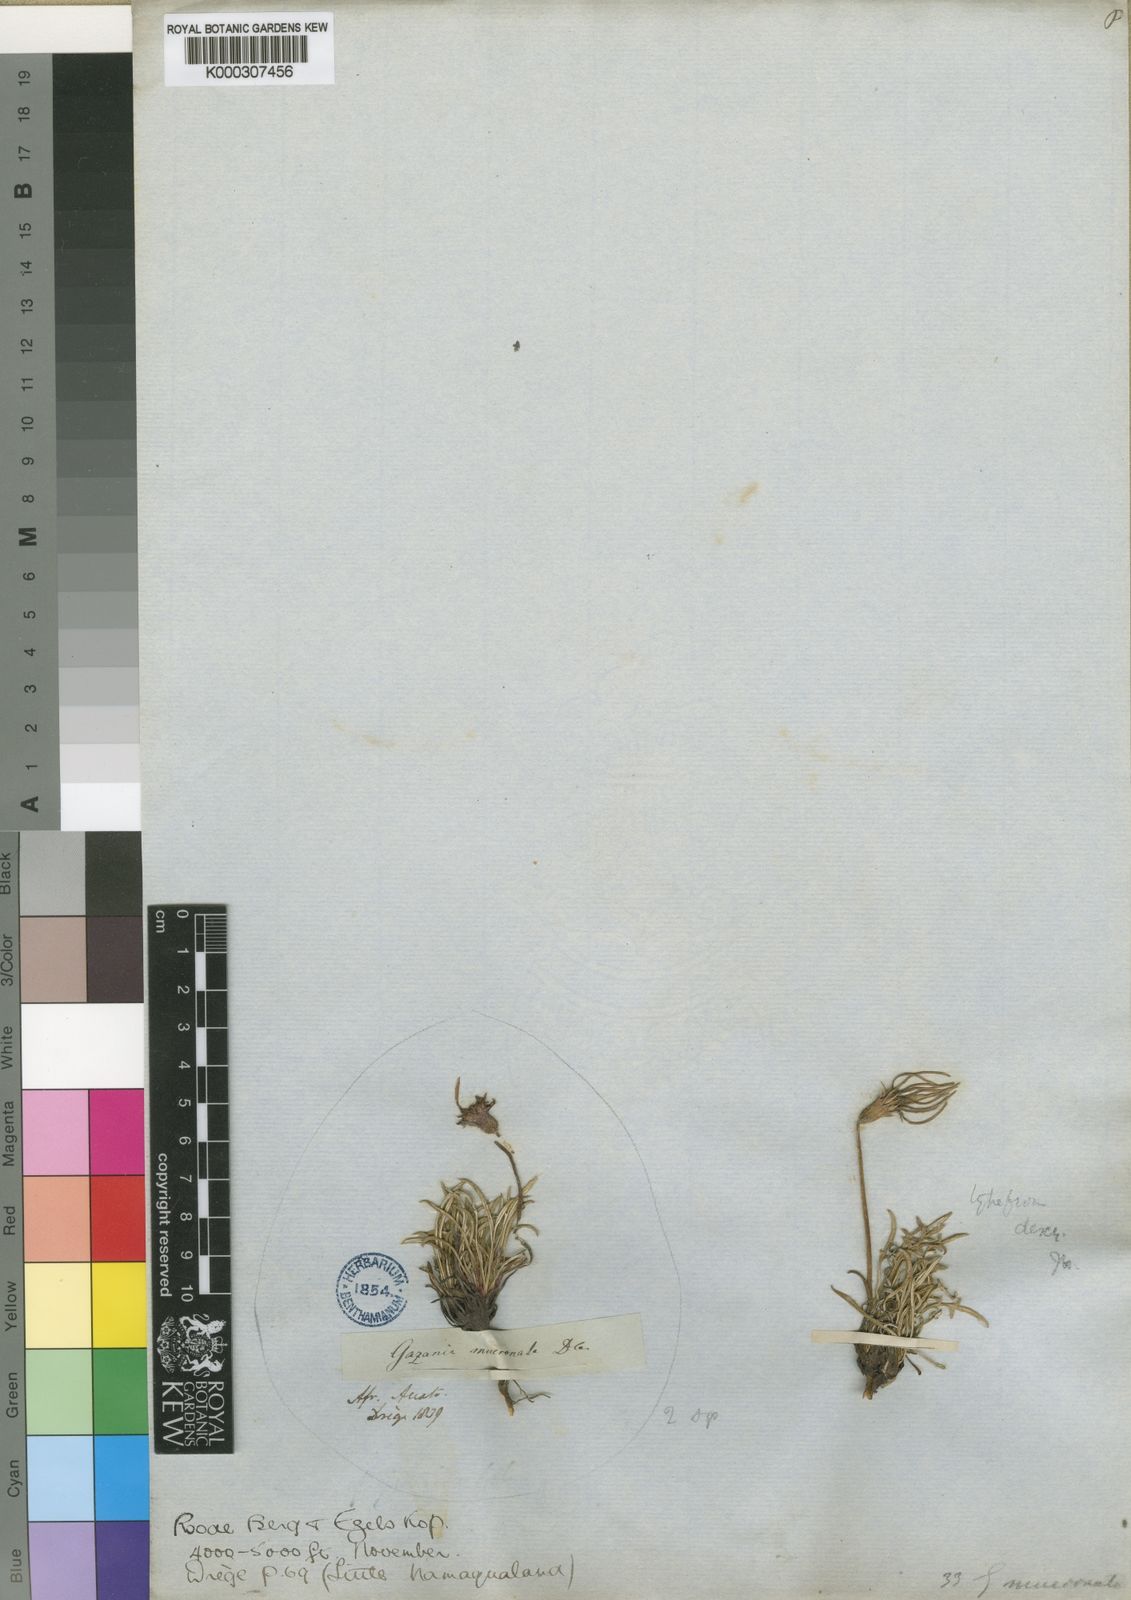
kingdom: Plantae
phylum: Tracheophyta
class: Magnoliopsida
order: Asterales
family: Asteraceae
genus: Gazania
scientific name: Gazania krebsiana
